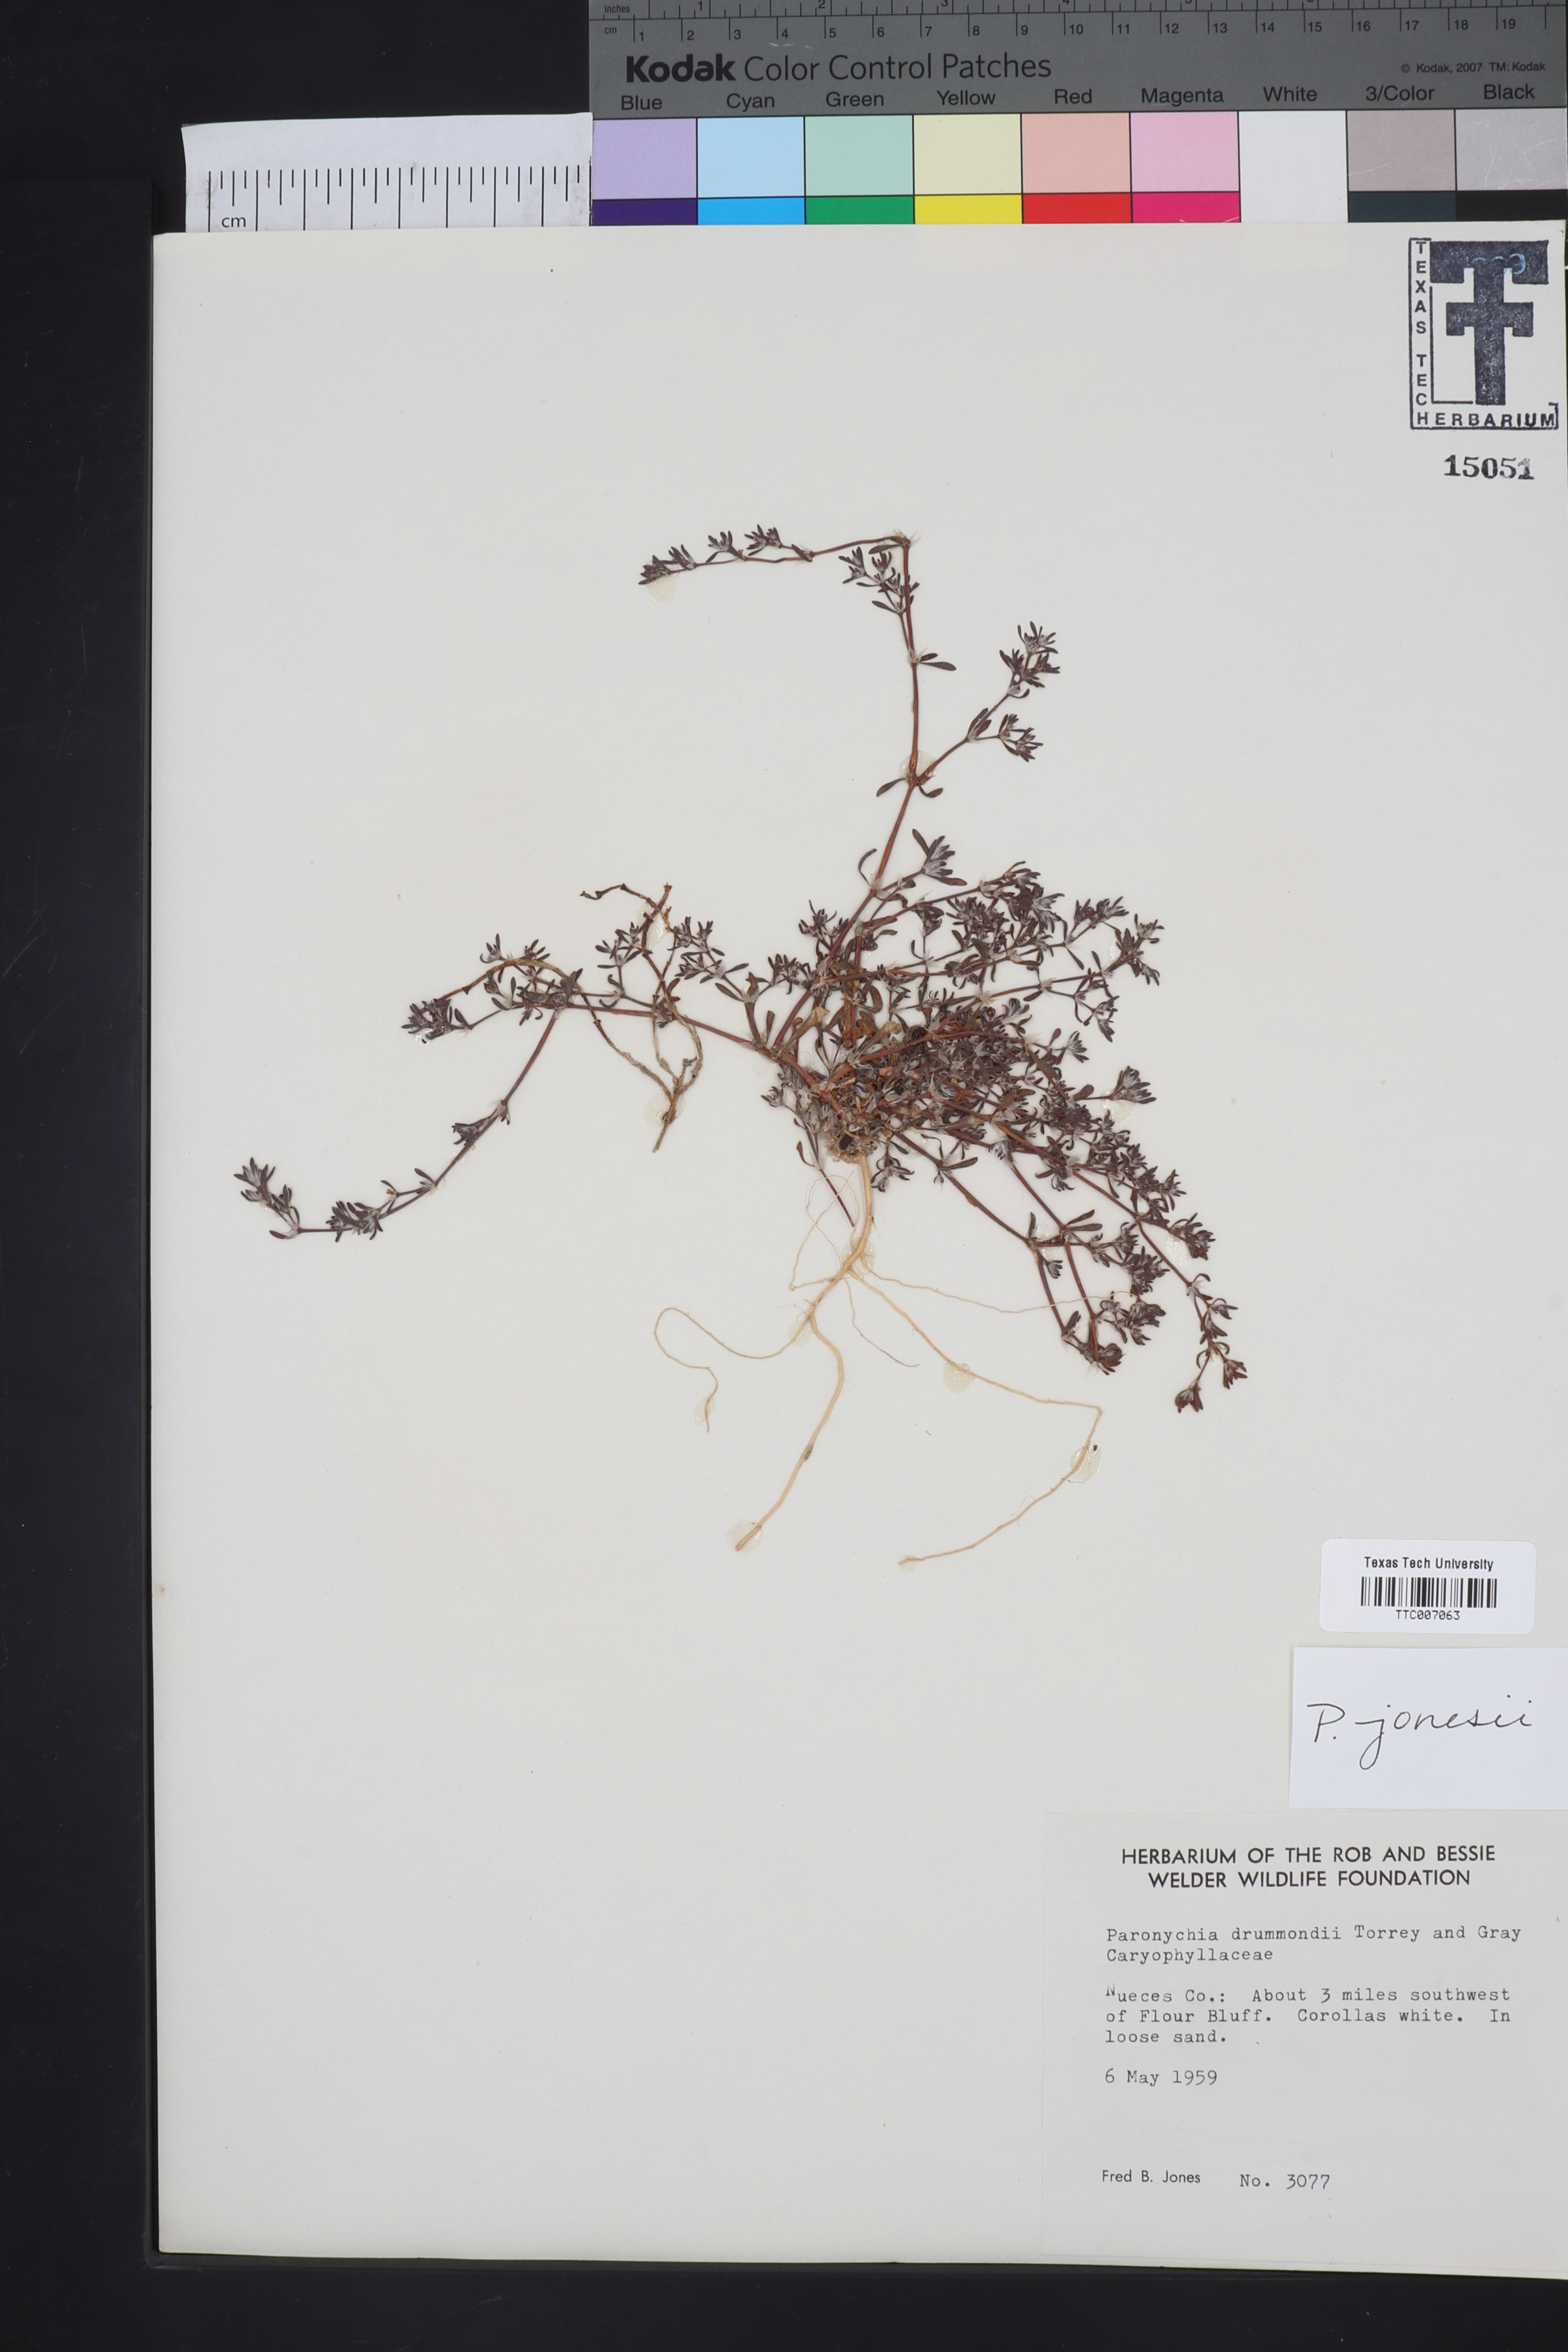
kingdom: Plantae
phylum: Tracheophyta
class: Magnoliopsida
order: Caryophyllales
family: Caryophyllaceae
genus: Paronychia
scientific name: Paronychia jonesii
